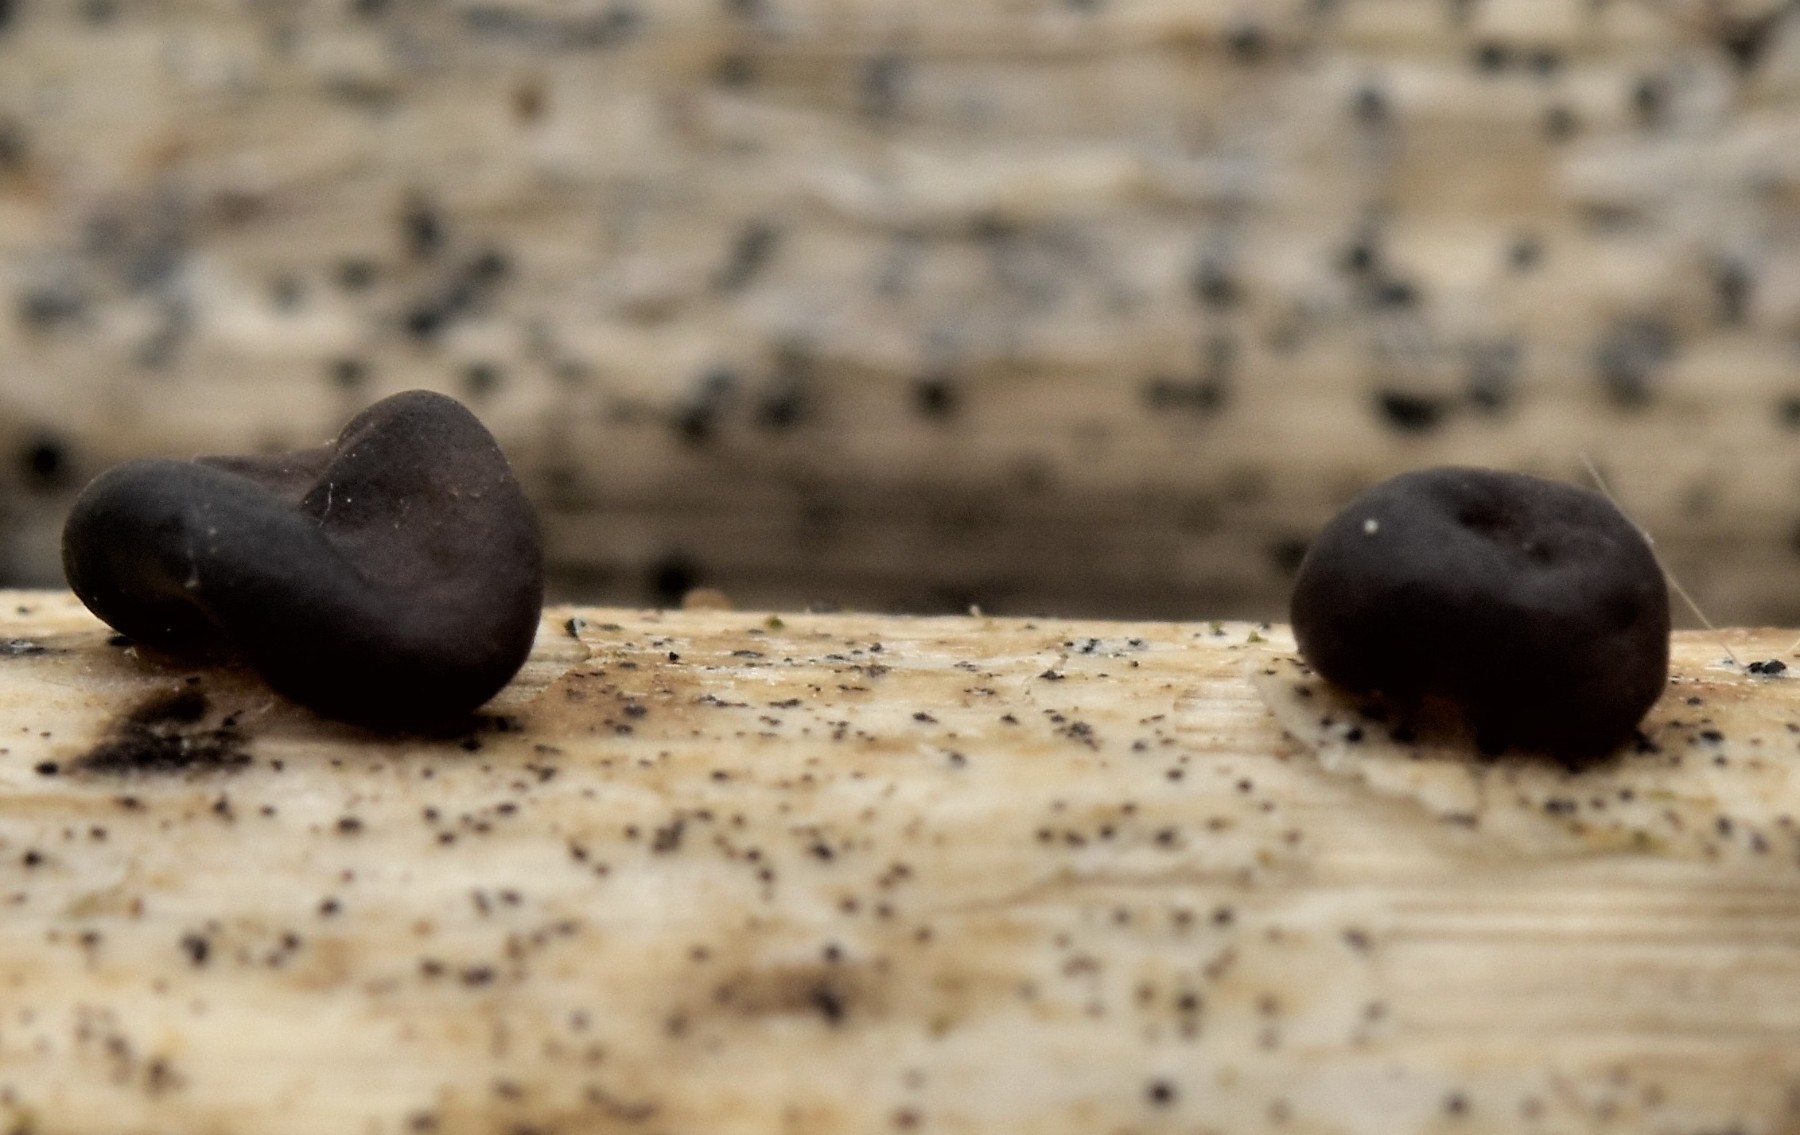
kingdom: Fungi
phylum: Ascomycota
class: Leotiomycetes
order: Helotiales
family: Heterosphaeriaceae
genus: Heterosphaeria
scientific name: Heterosphaeria
